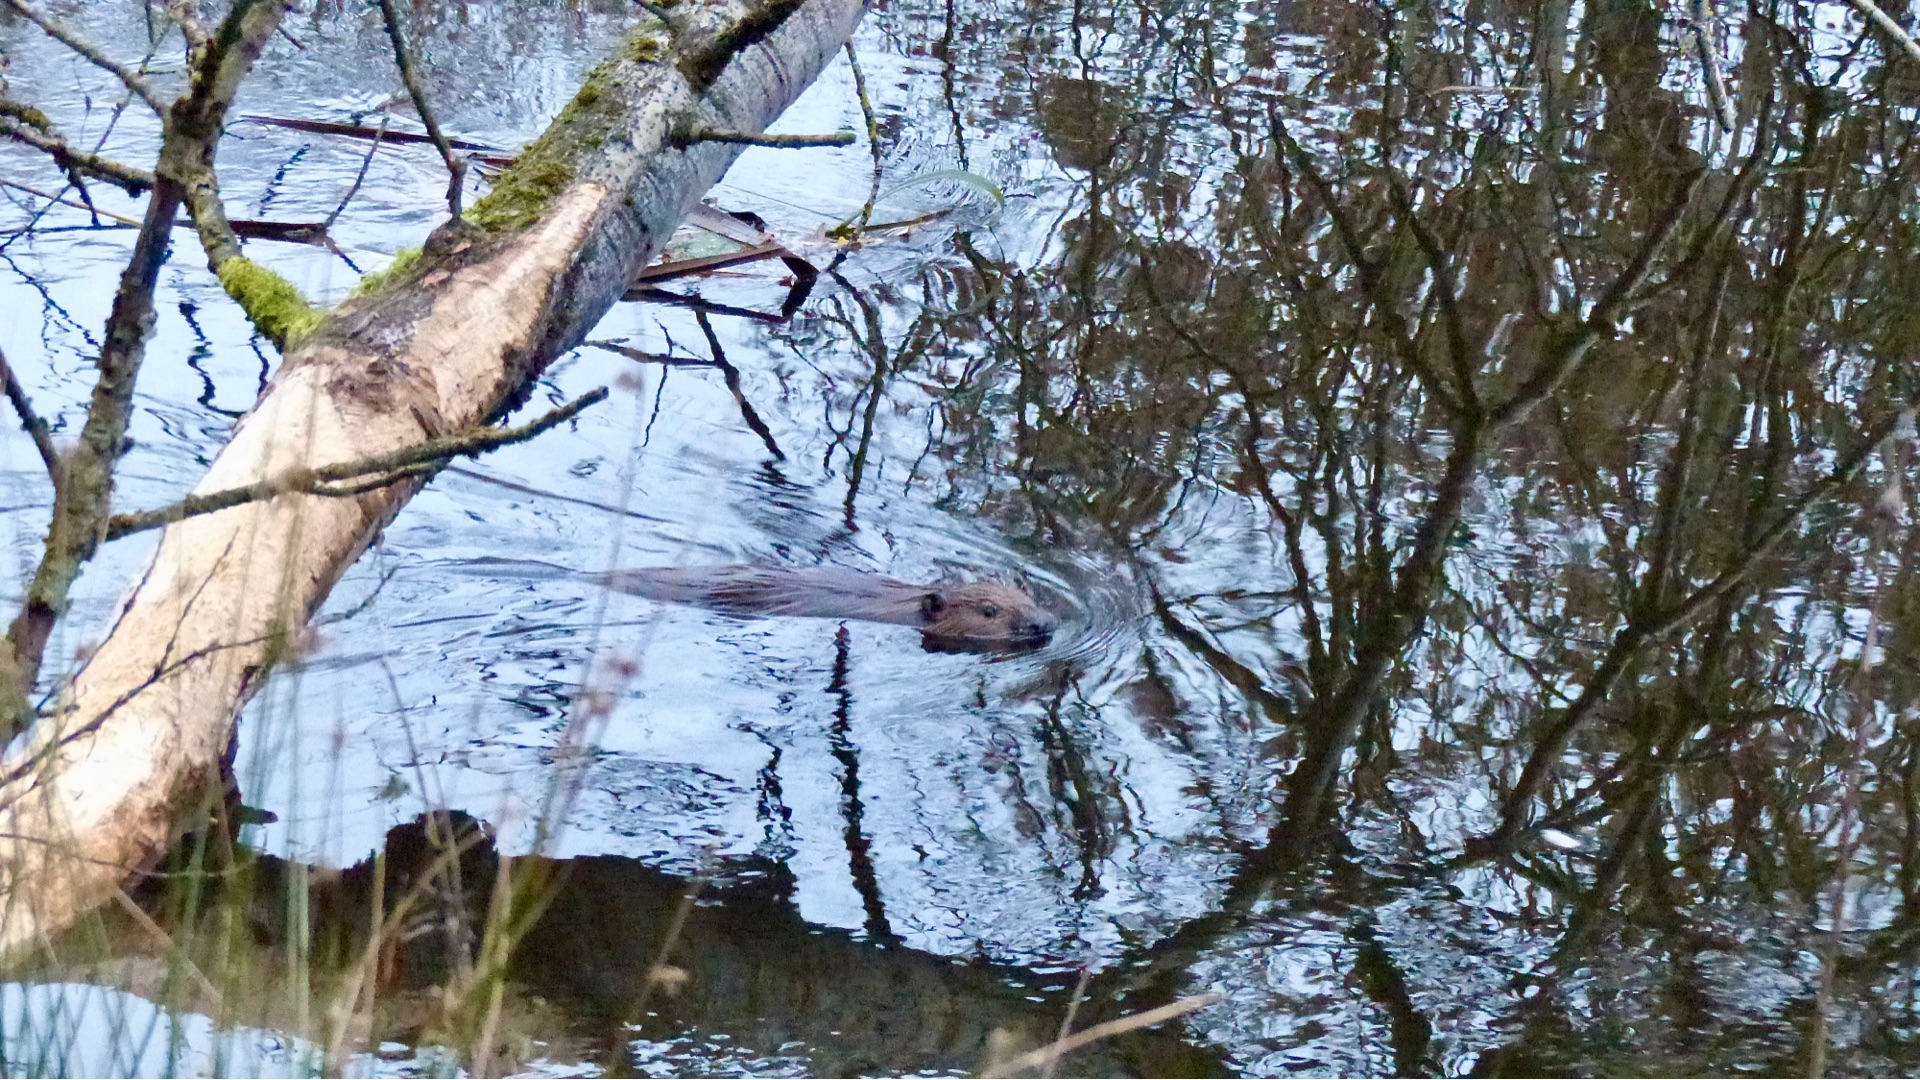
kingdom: Animalia
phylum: Chordata
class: Mammalia
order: Rodentia
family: Castoridae
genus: Castor
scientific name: Castor fiber
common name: Bæver
